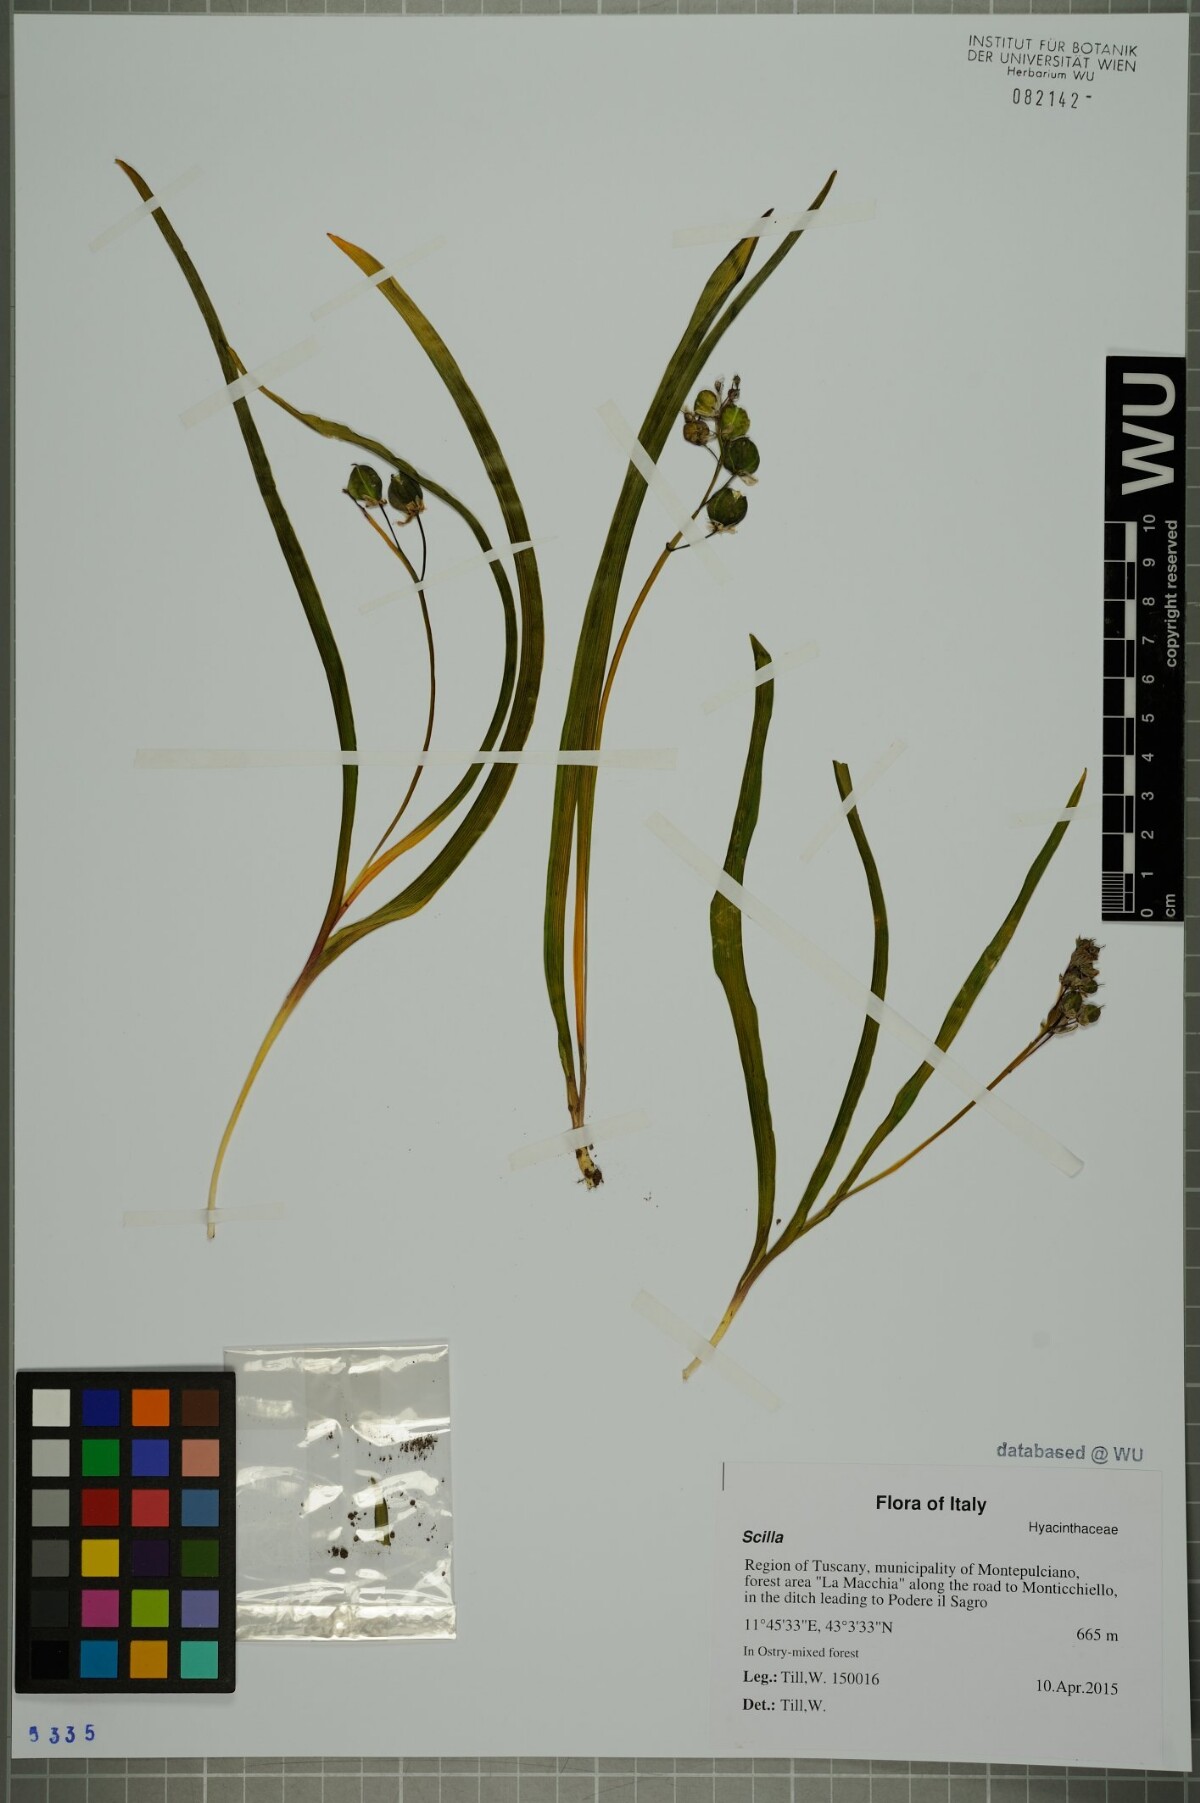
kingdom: Plantae
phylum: Tracheophyta
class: Liliopsida
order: Asparagales
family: Asparagaceae
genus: Scilla
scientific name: Scilla
